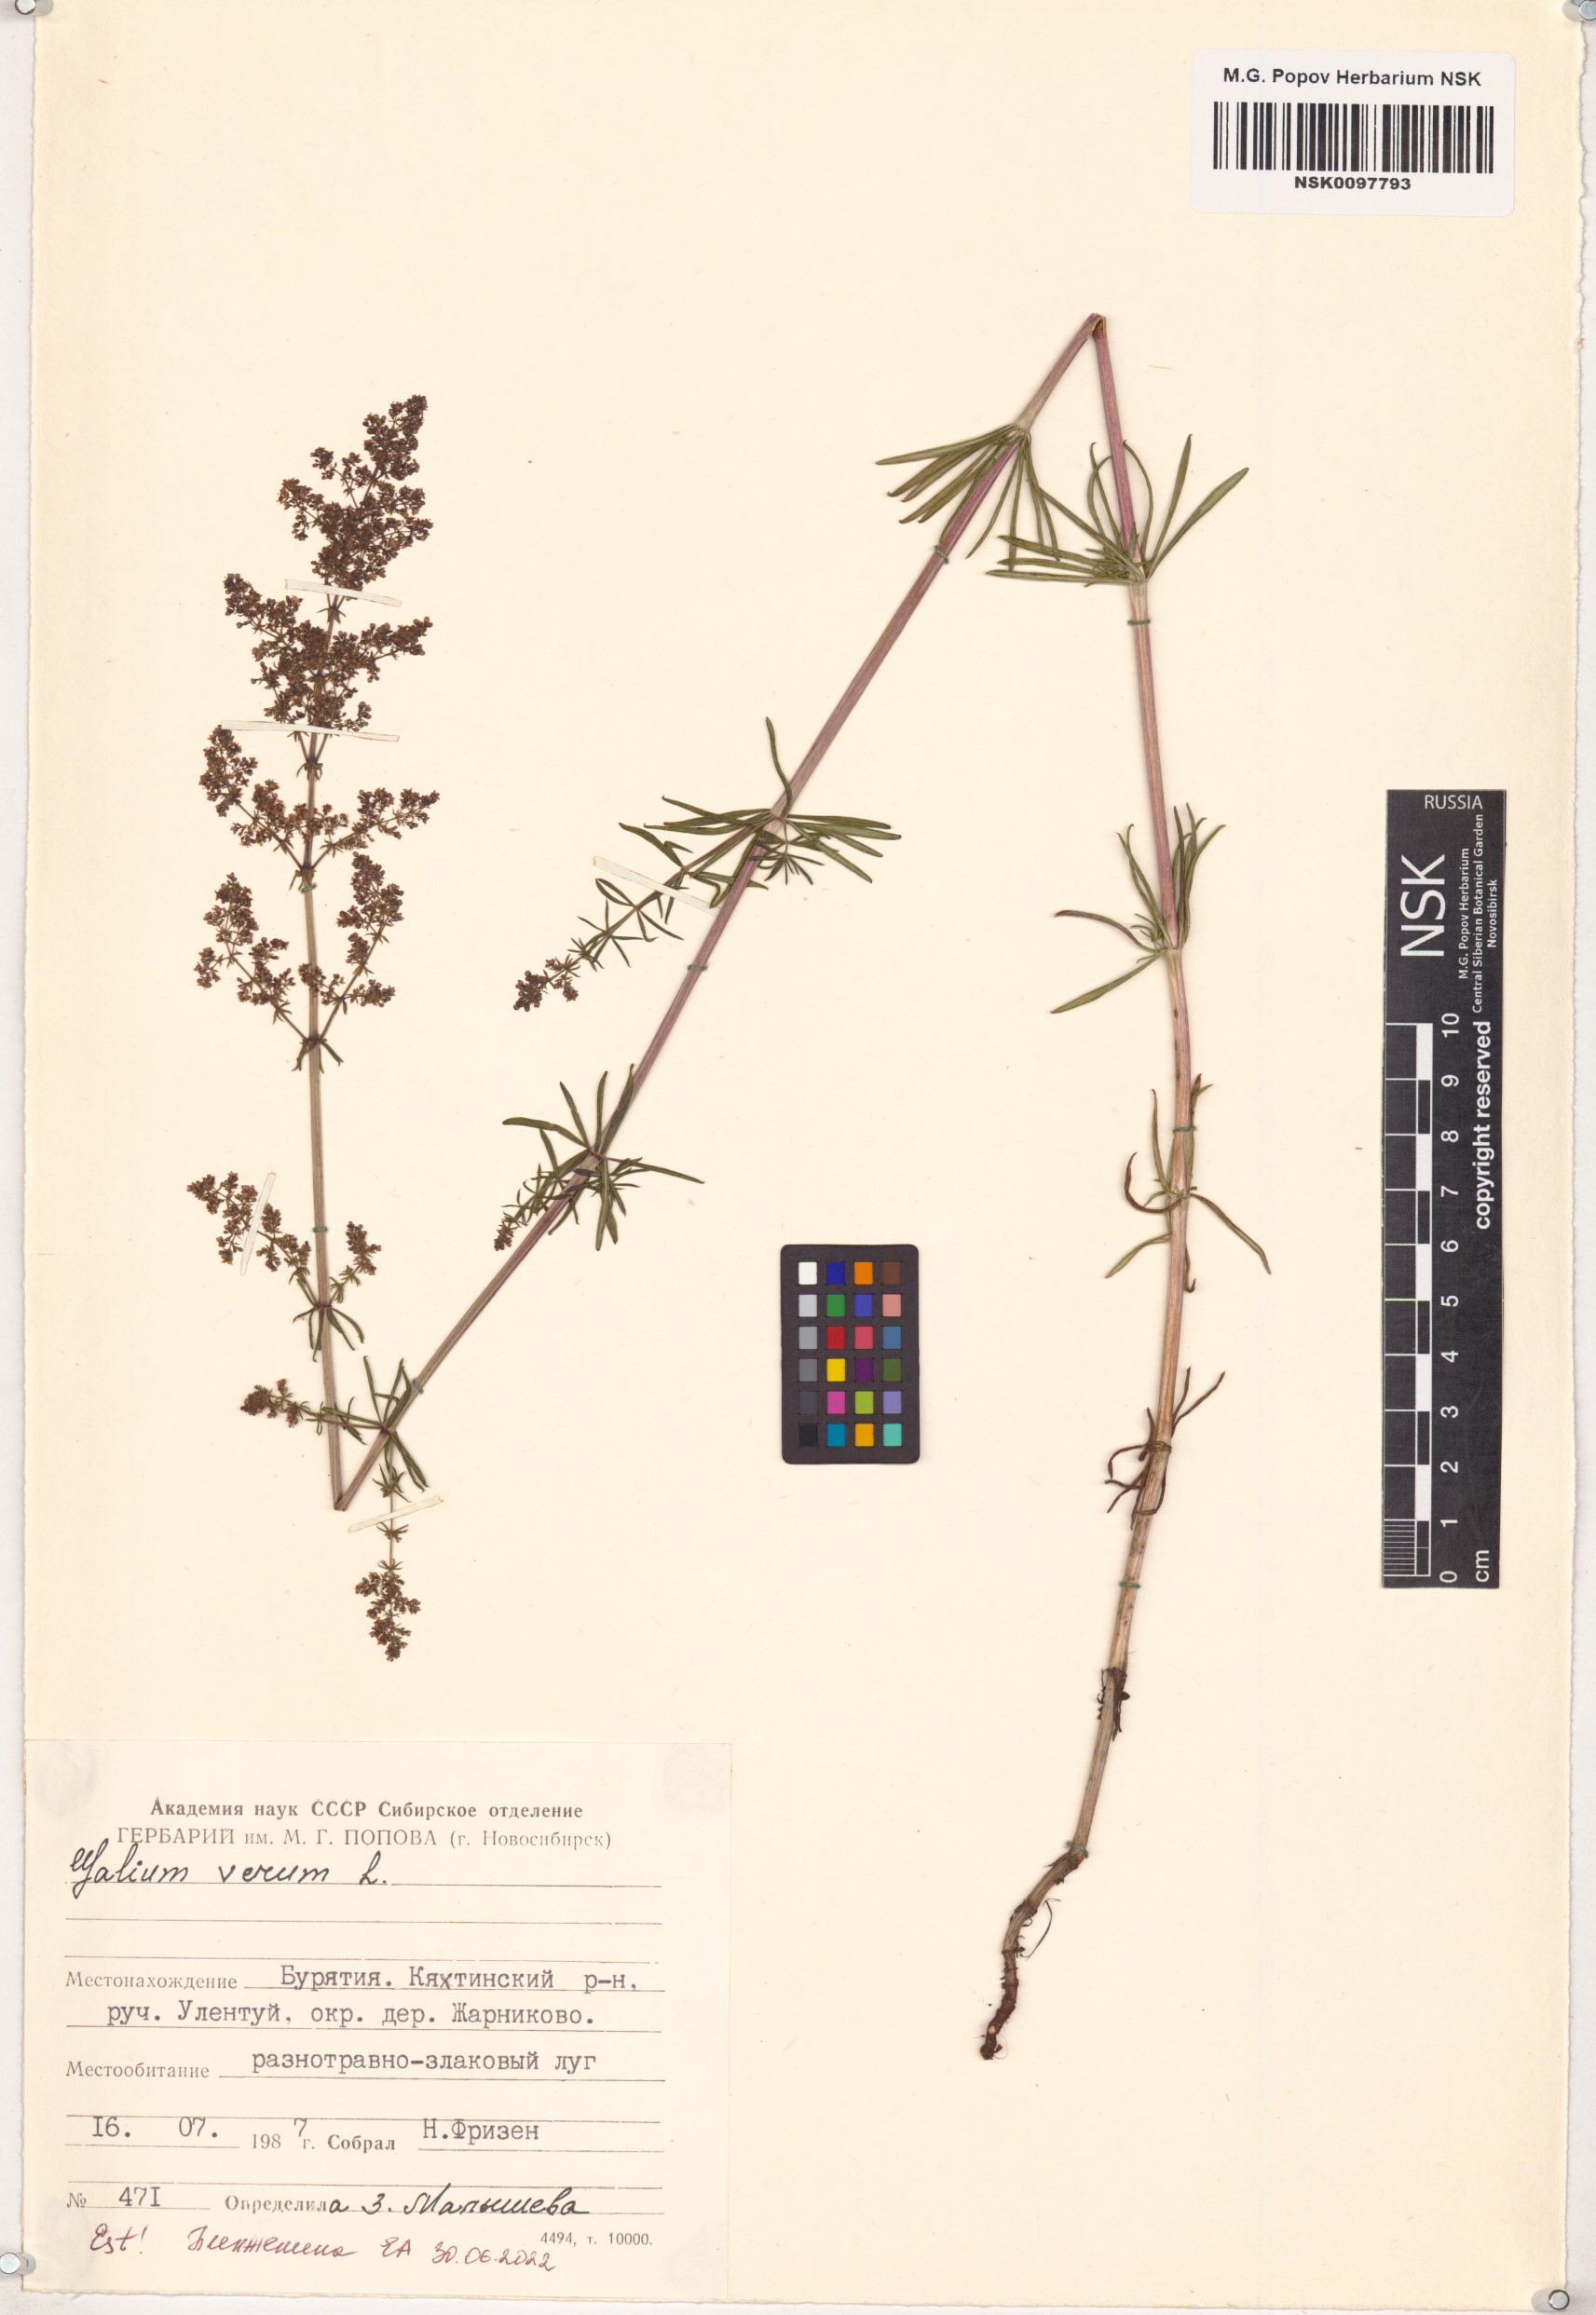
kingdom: Plantae
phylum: Tracheophyta
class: Magnoliopsida
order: Gentianales
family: Rubiaceae
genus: Galium
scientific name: Galium verum
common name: Lady's bedstraw
